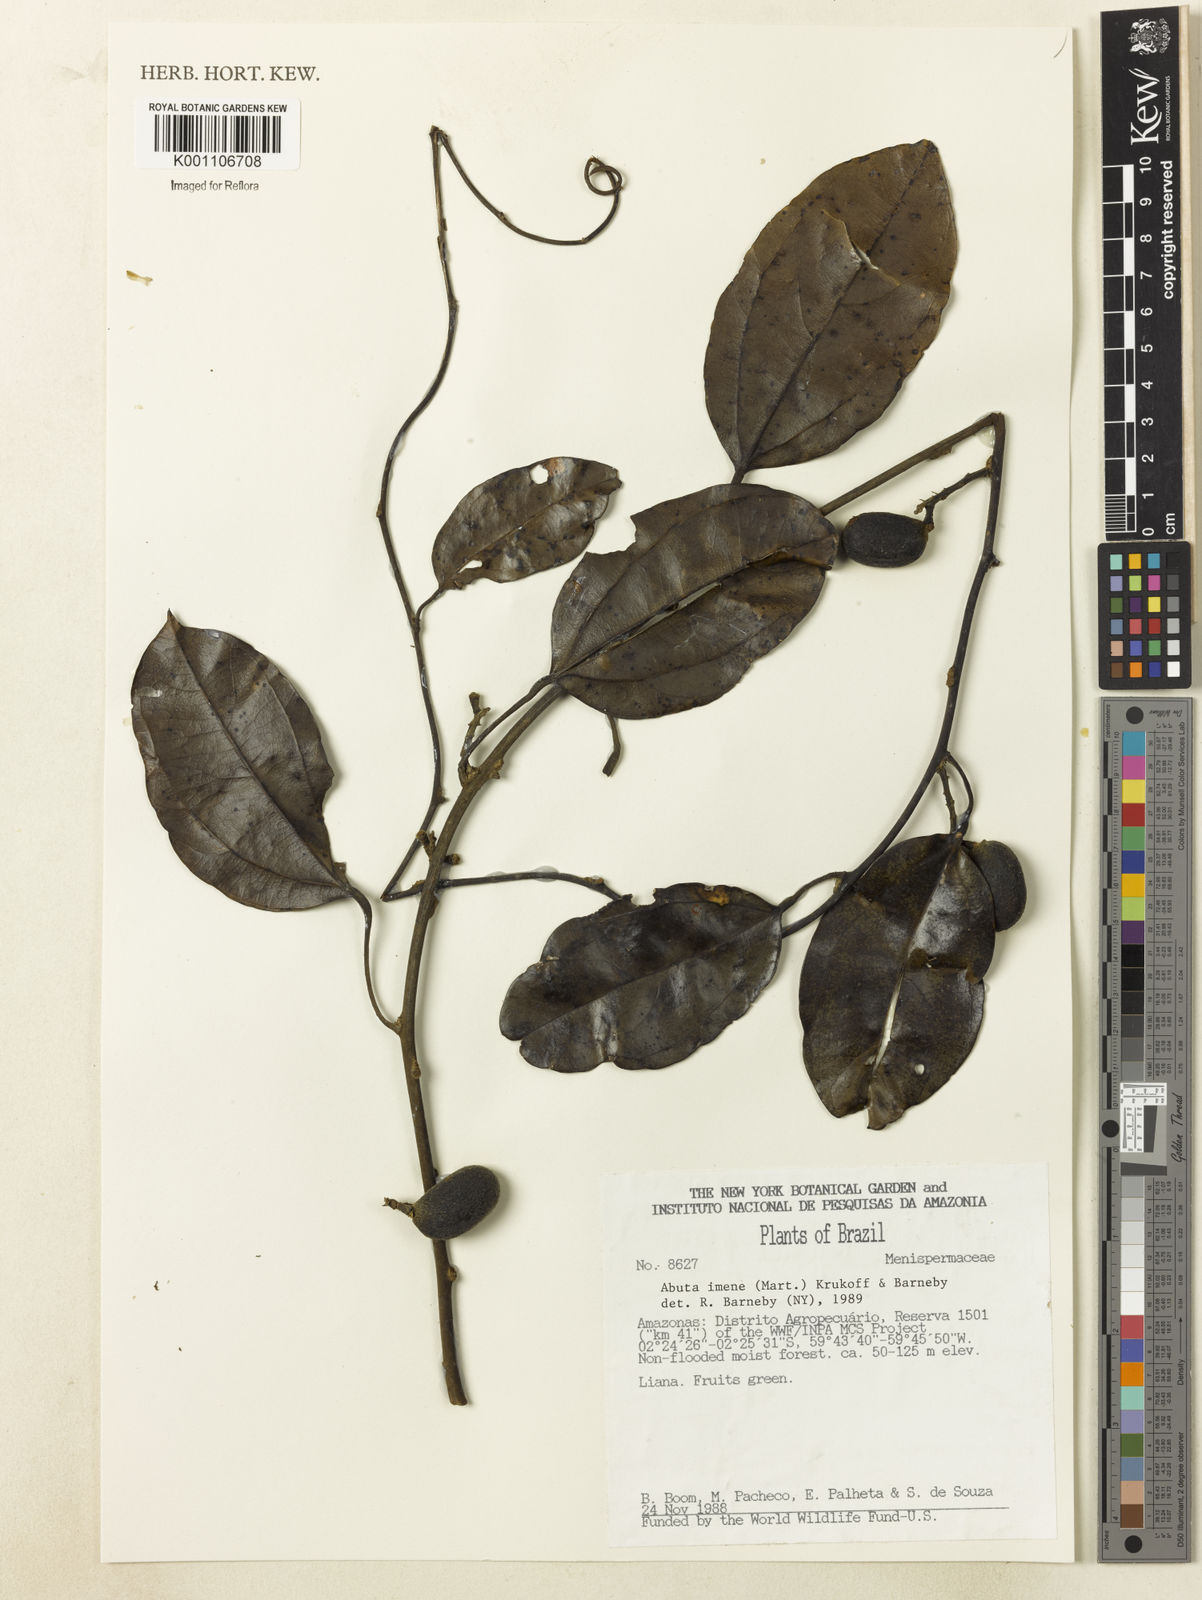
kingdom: Plantae
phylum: Tracheophyta
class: Magnoliopsida
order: Ranunculales
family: Menispermaceae
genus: Abuta
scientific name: Abuta imene
